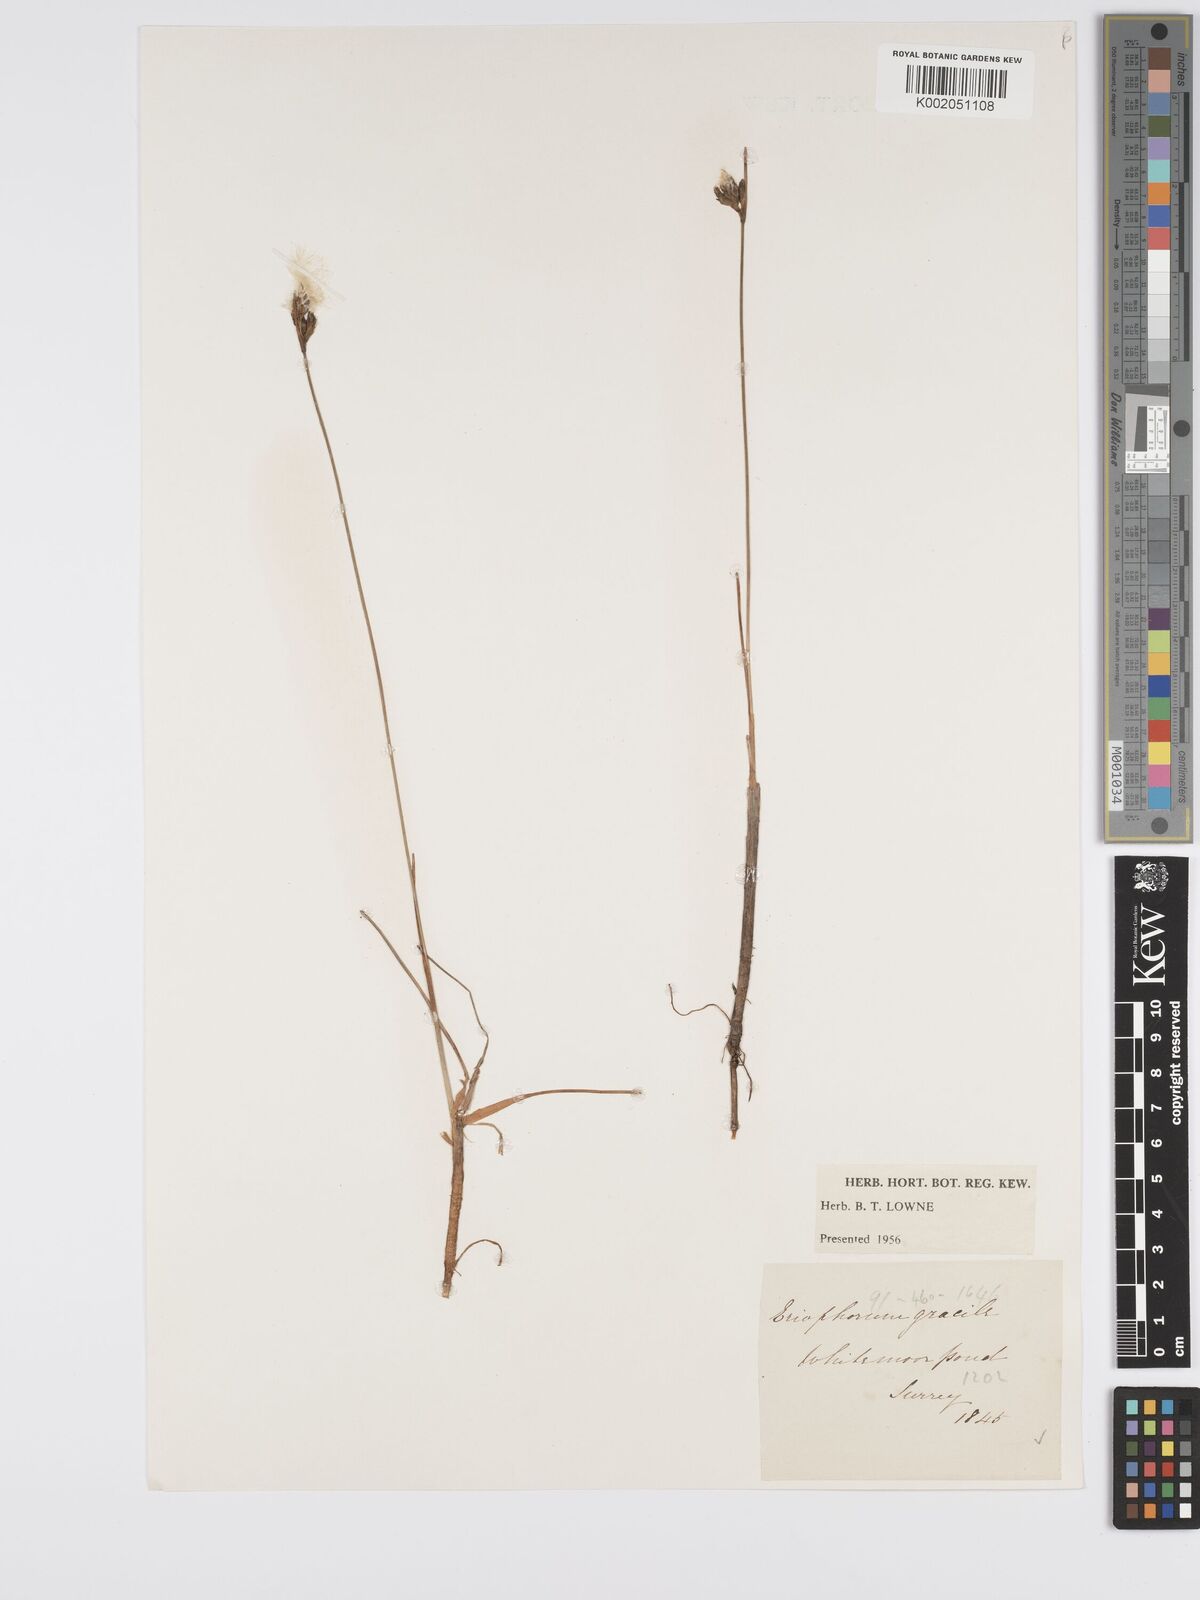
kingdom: Plantae
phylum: Tracheophyta
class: Liliopsida
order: Poales
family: Cyperaceae
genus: Eriophorum
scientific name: Eriophorum gracile
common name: Slender cottongrass
